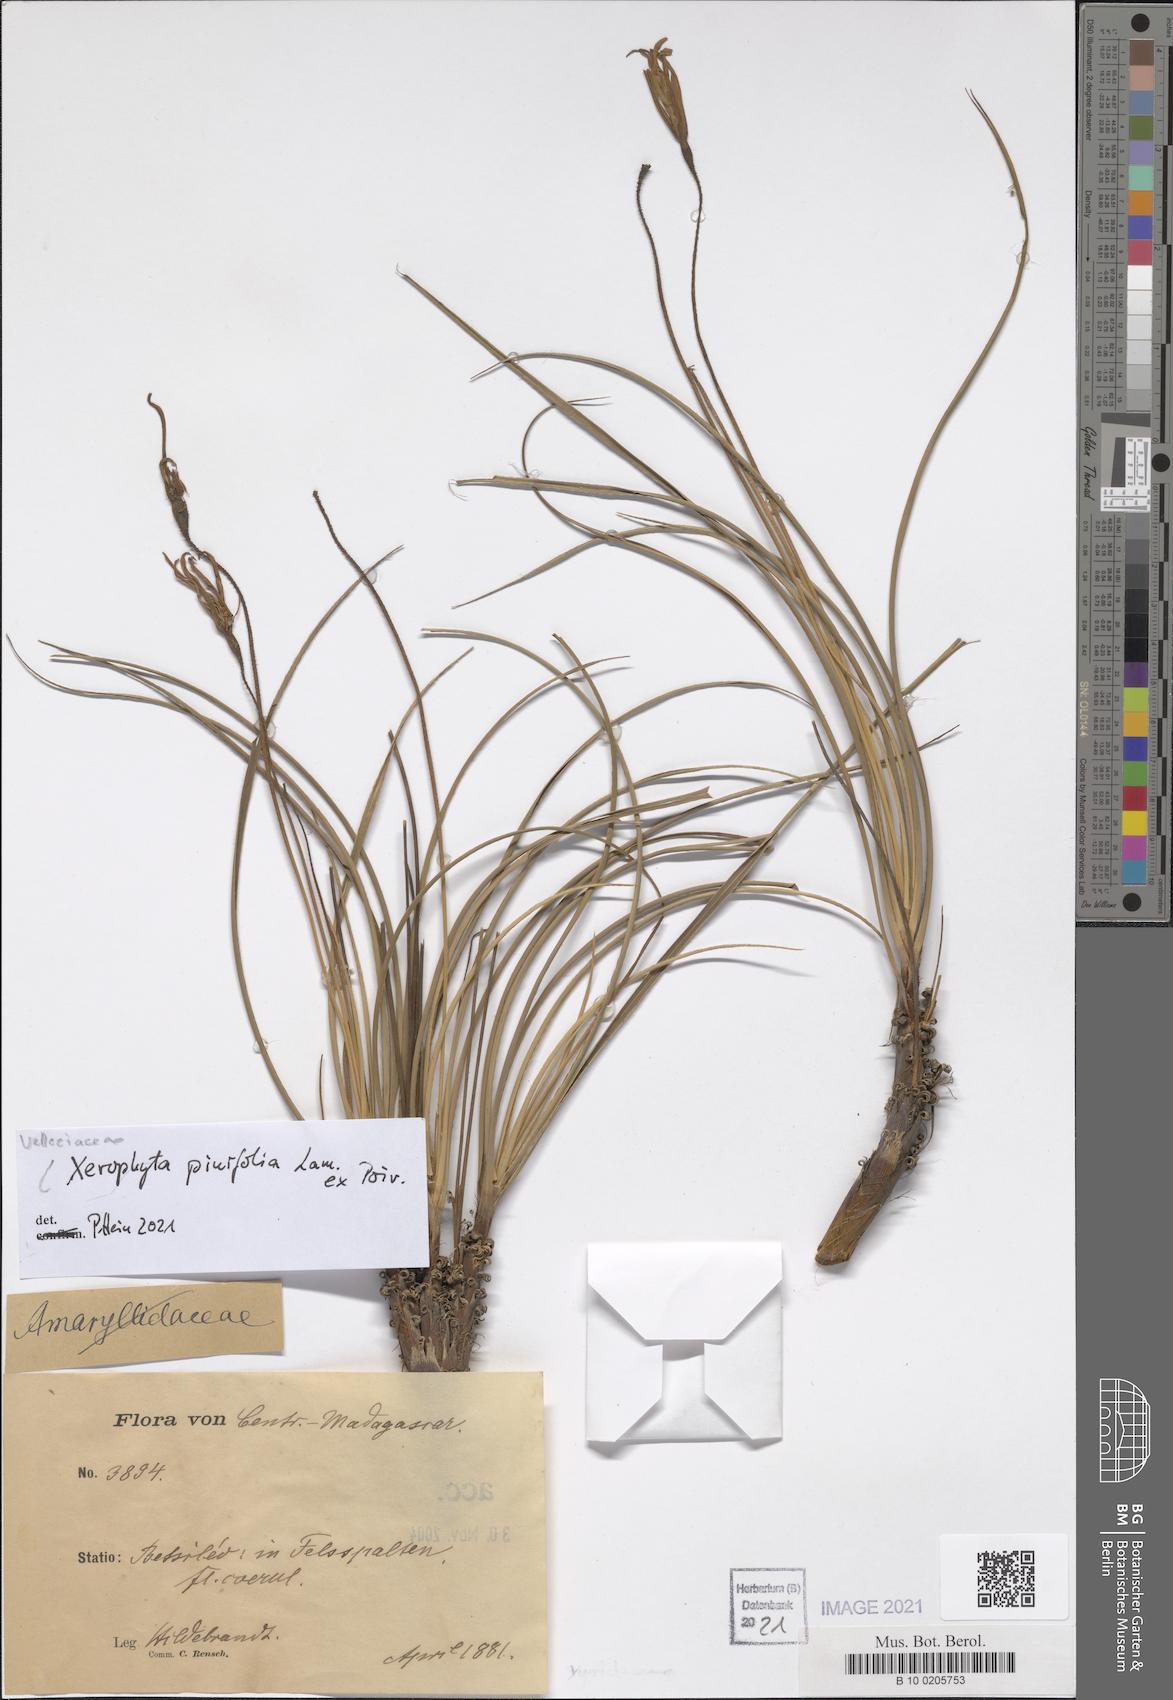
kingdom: Plantae
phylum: Tracheophyta
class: Liliopsida
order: Pandanales
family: Velloziaceae
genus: Xerophyta
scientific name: Xerophyta pinifolia
